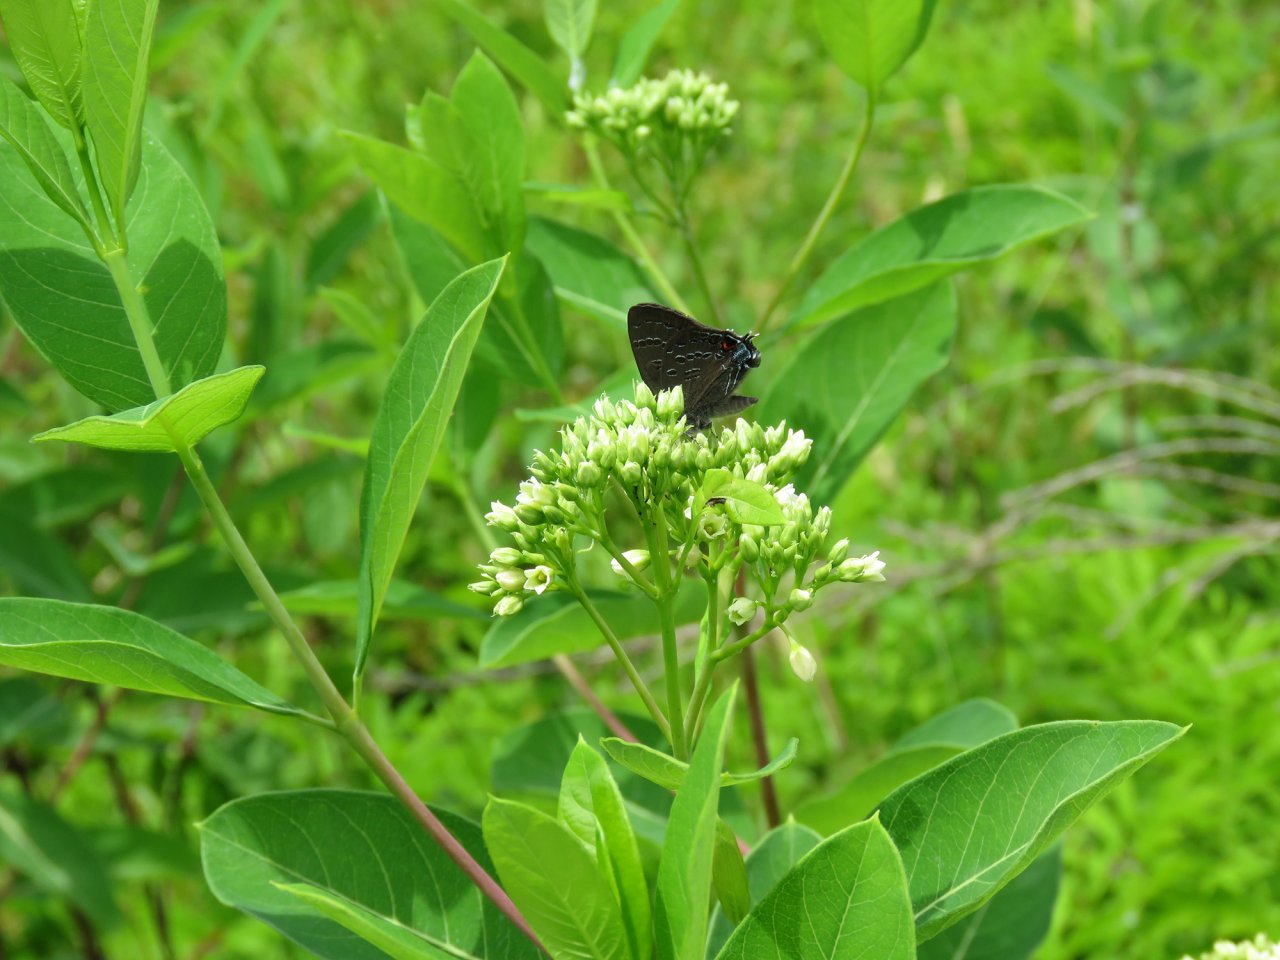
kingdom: Animalia
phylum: Arthropoda
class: Insecta
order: Lepidoptera
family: Lycaenidae
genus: Elkalyce
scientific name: Elkalyce comyntas
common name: Eastern Tailed-Blue
